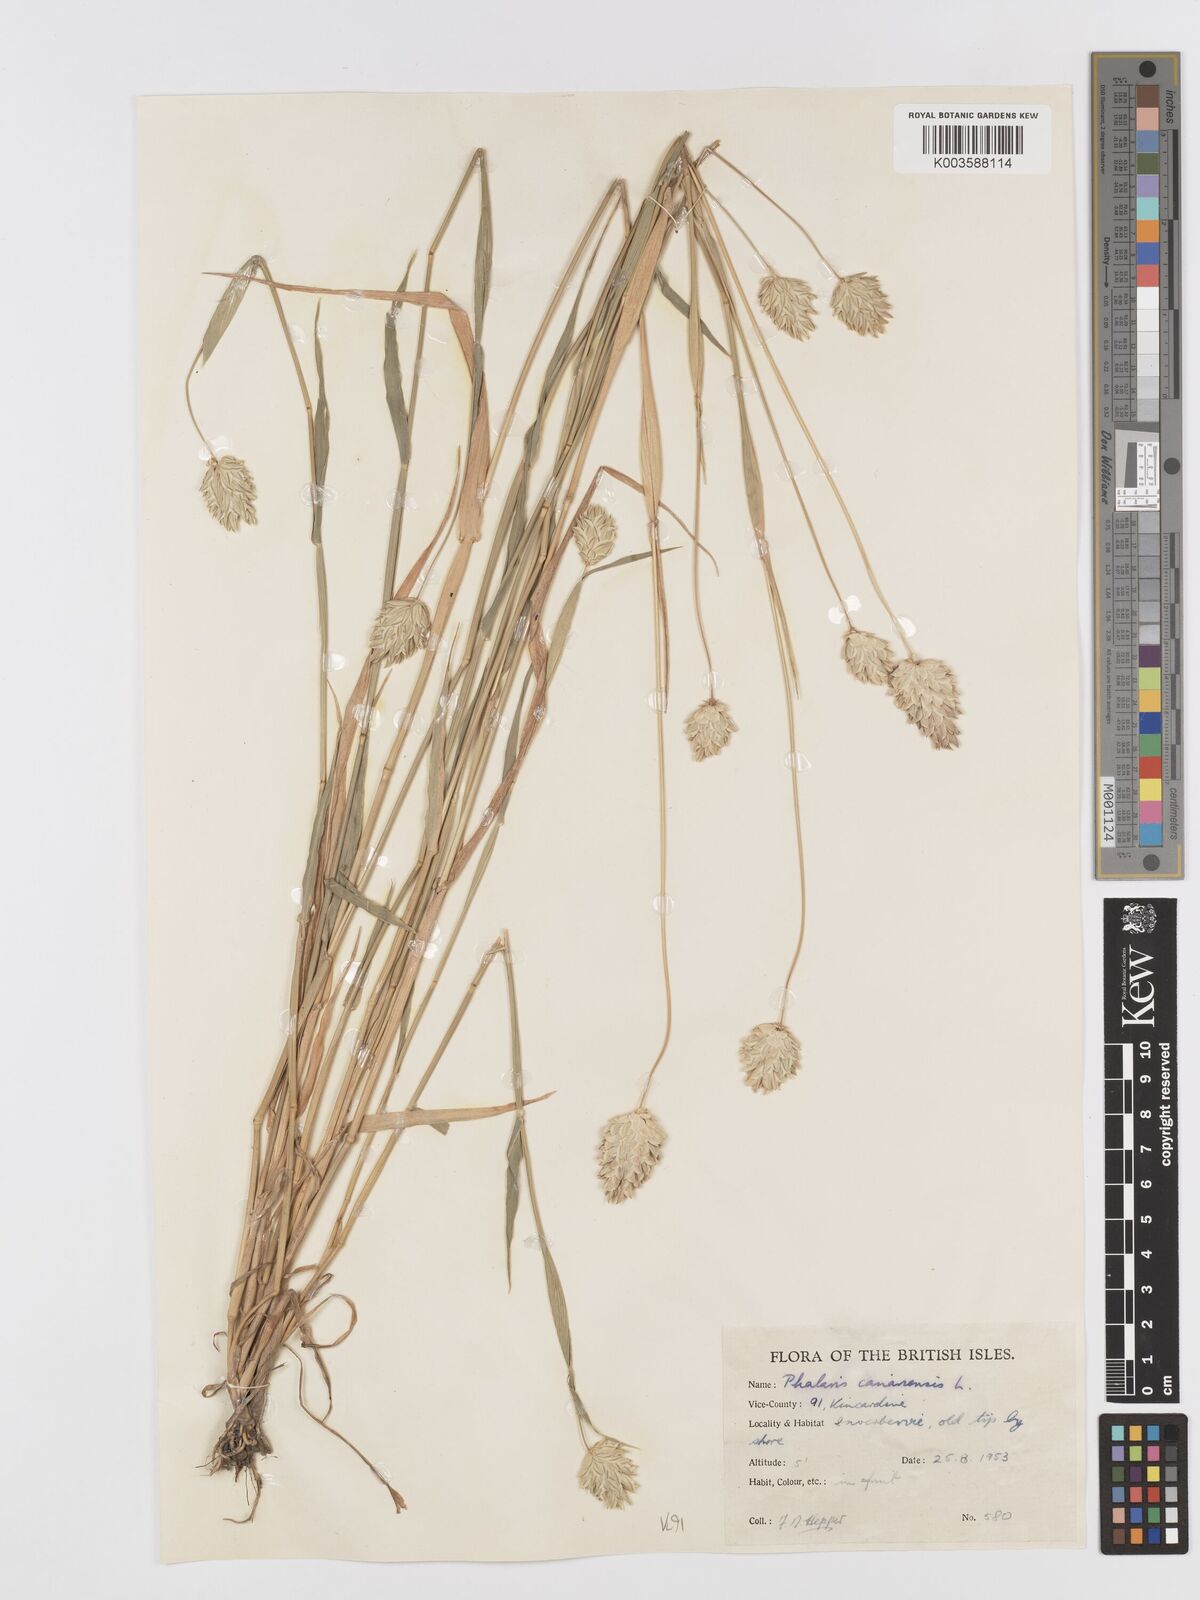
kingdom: Plantae
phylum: Tracheophyta
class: Liliopsida
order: Poales
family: Poaceae
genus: Phalaris
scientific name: Phalaris canariensis
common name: Annual canarygrass
